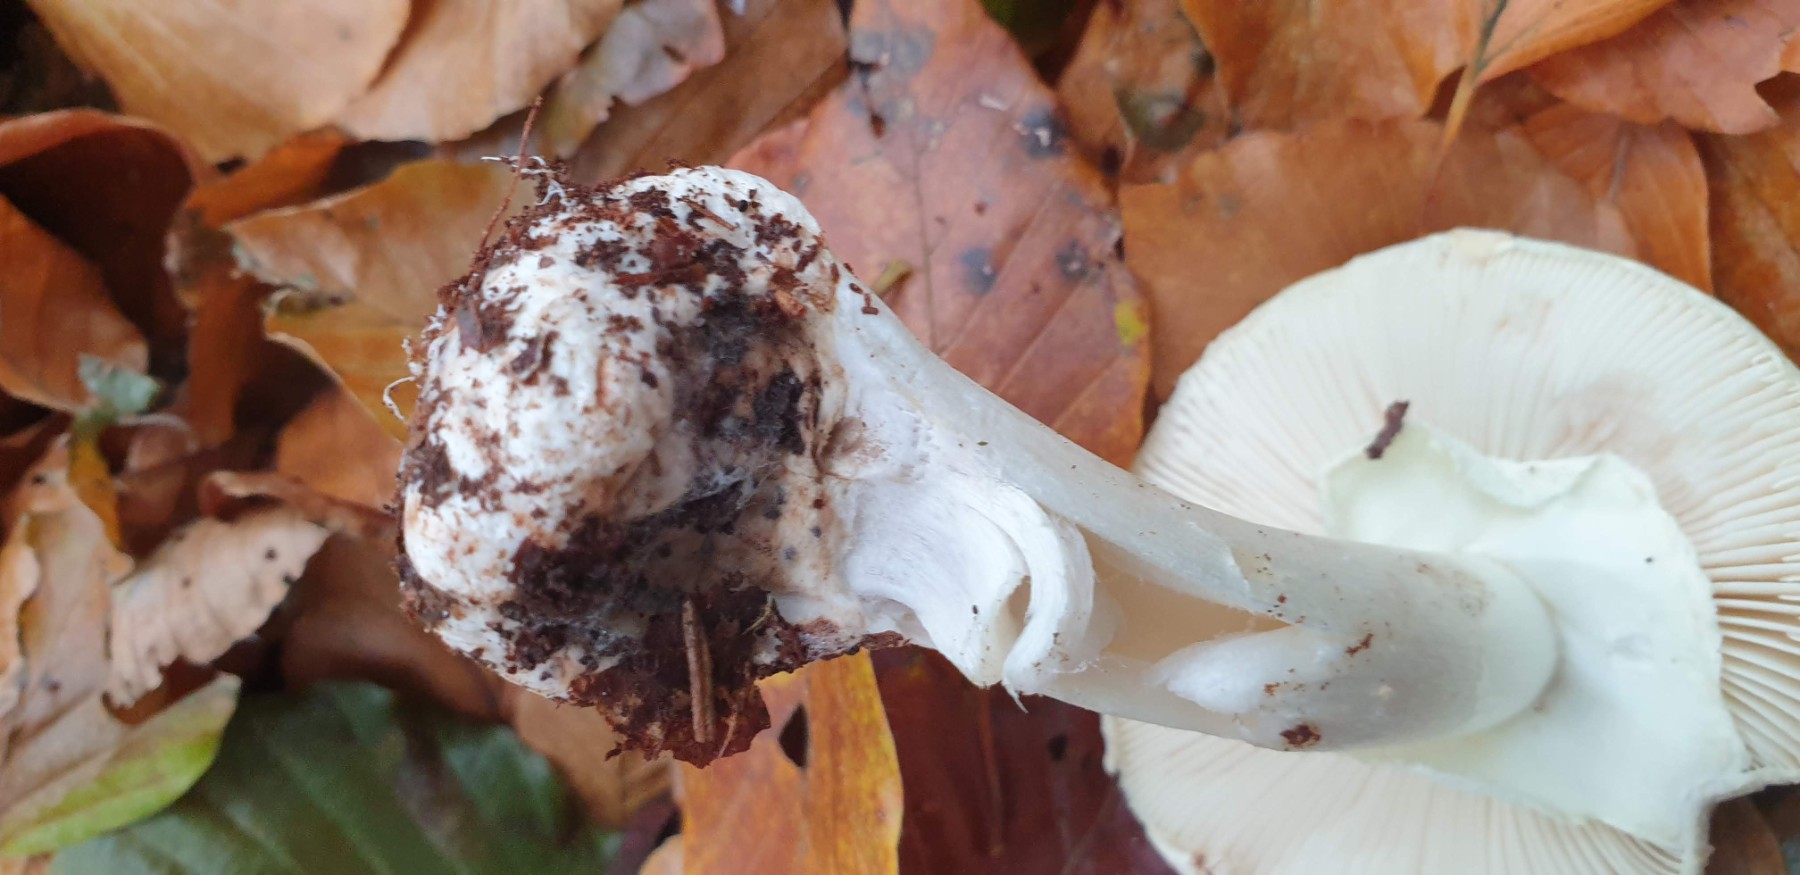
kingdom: Fungi
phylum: Basidiomycota
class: Agaricomycetes
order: Agaricales
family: Amanitaceae
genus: Amanita
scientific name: Amanita citrina
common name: False death-cap
